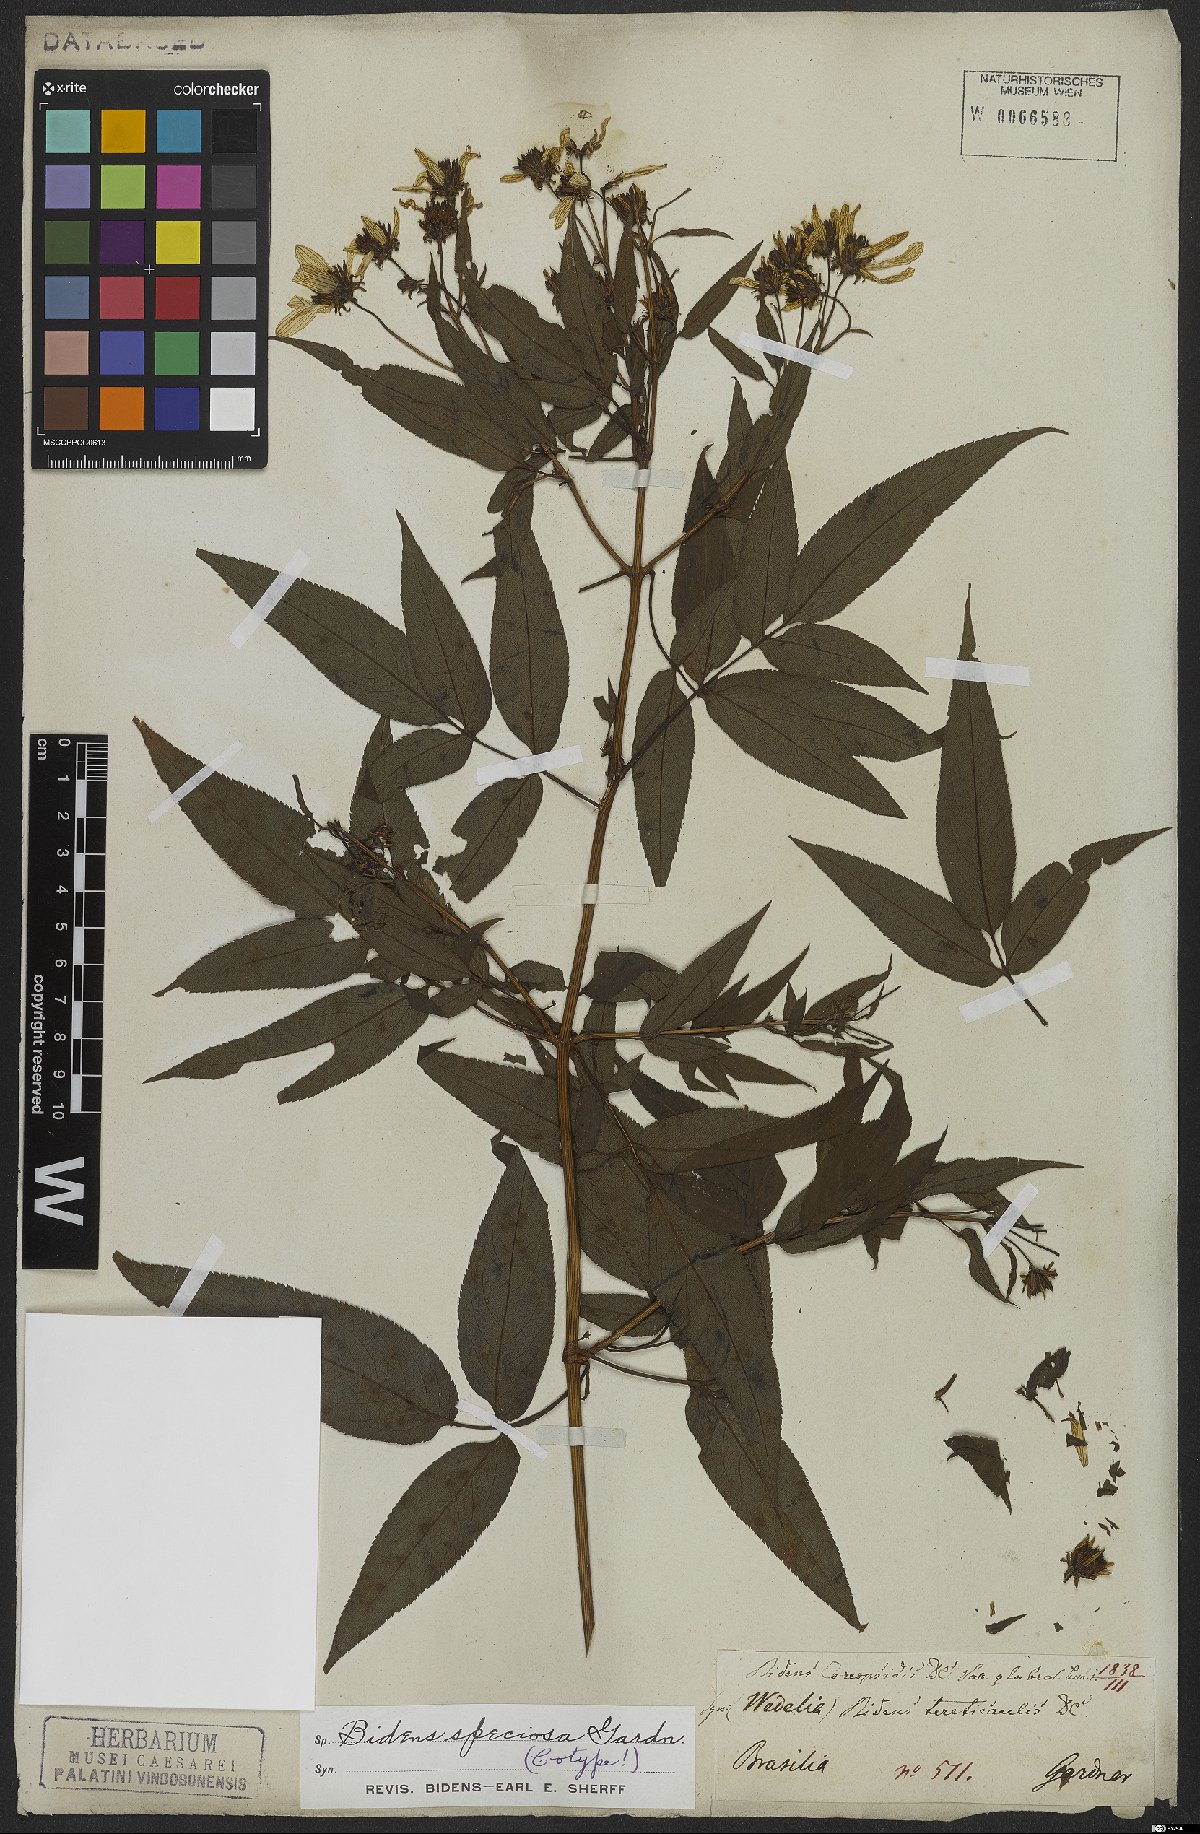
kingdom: Plantae
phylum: Tracheophyta
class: Magnoliopsida
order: Asterales
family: Asteraceae
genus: Bidens
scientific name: Bidens segetum
